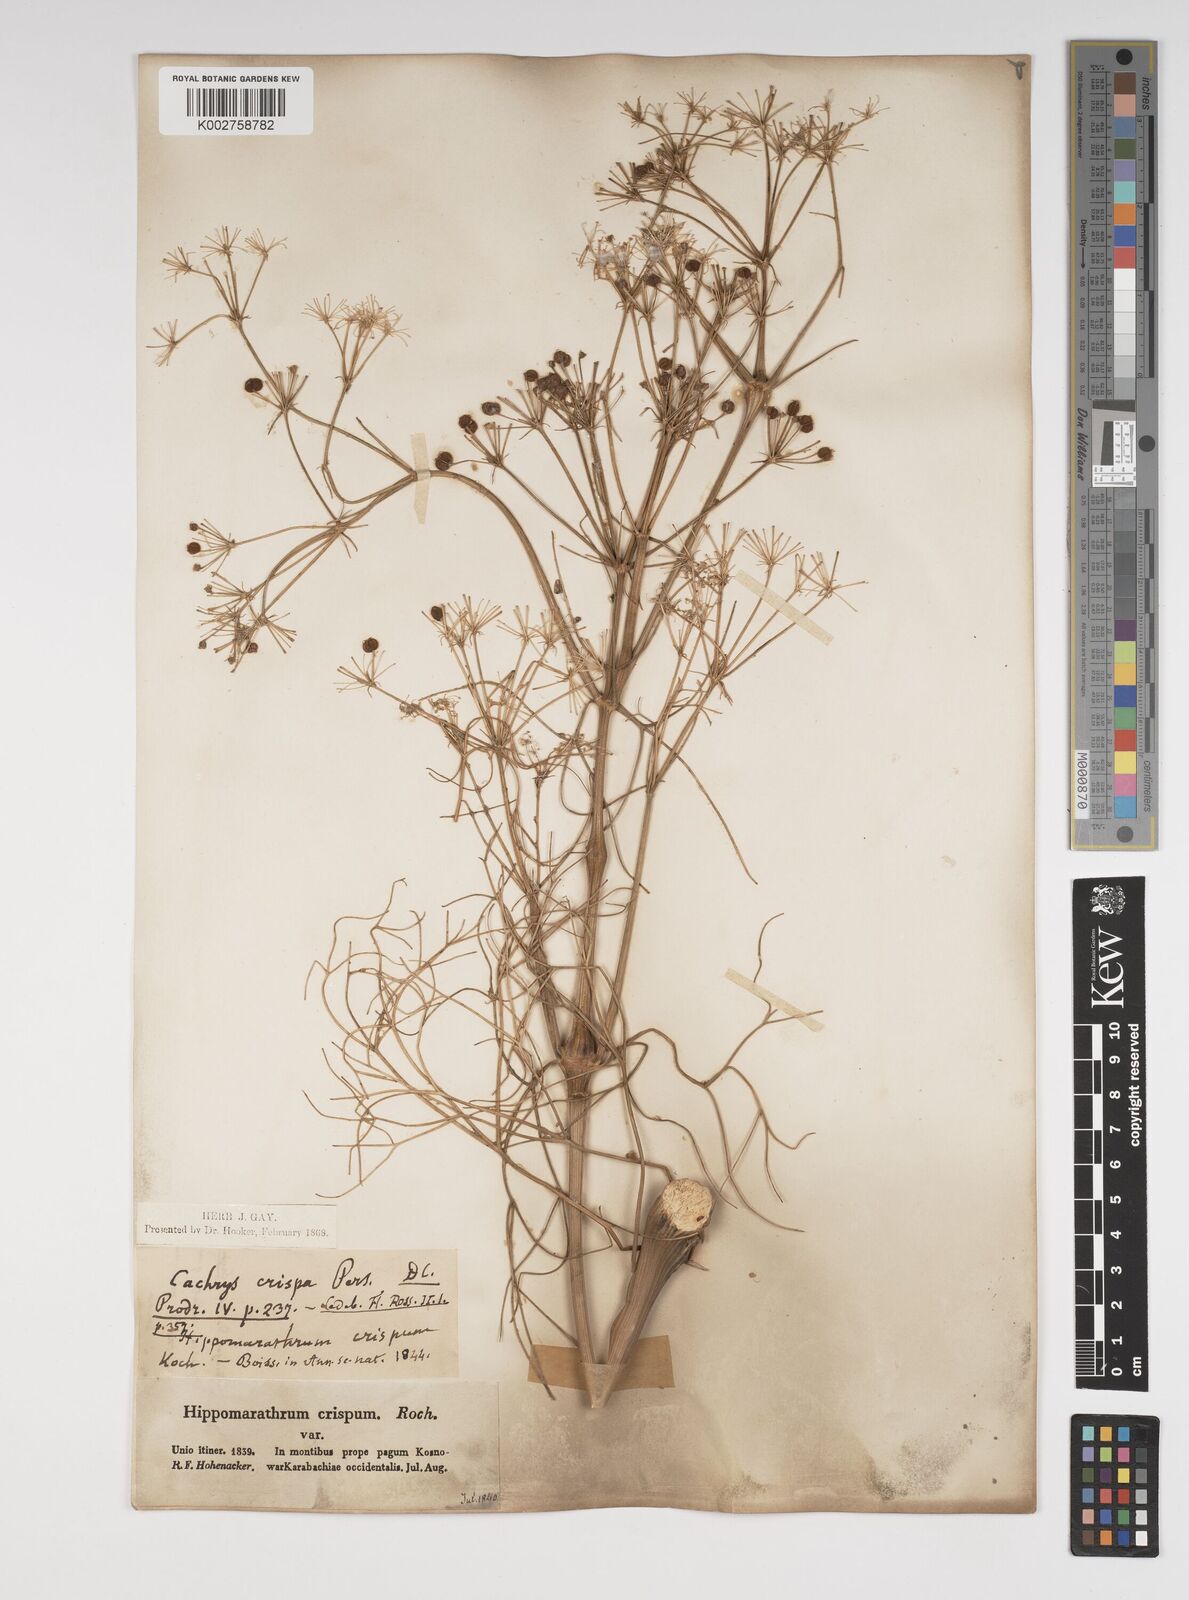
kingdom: Plantae
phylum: Tracheophyta
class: Magnoliopsida
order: Apiales
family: Apiaceae
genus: Bilacunaria
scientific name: Bilacunaria microcarpa
